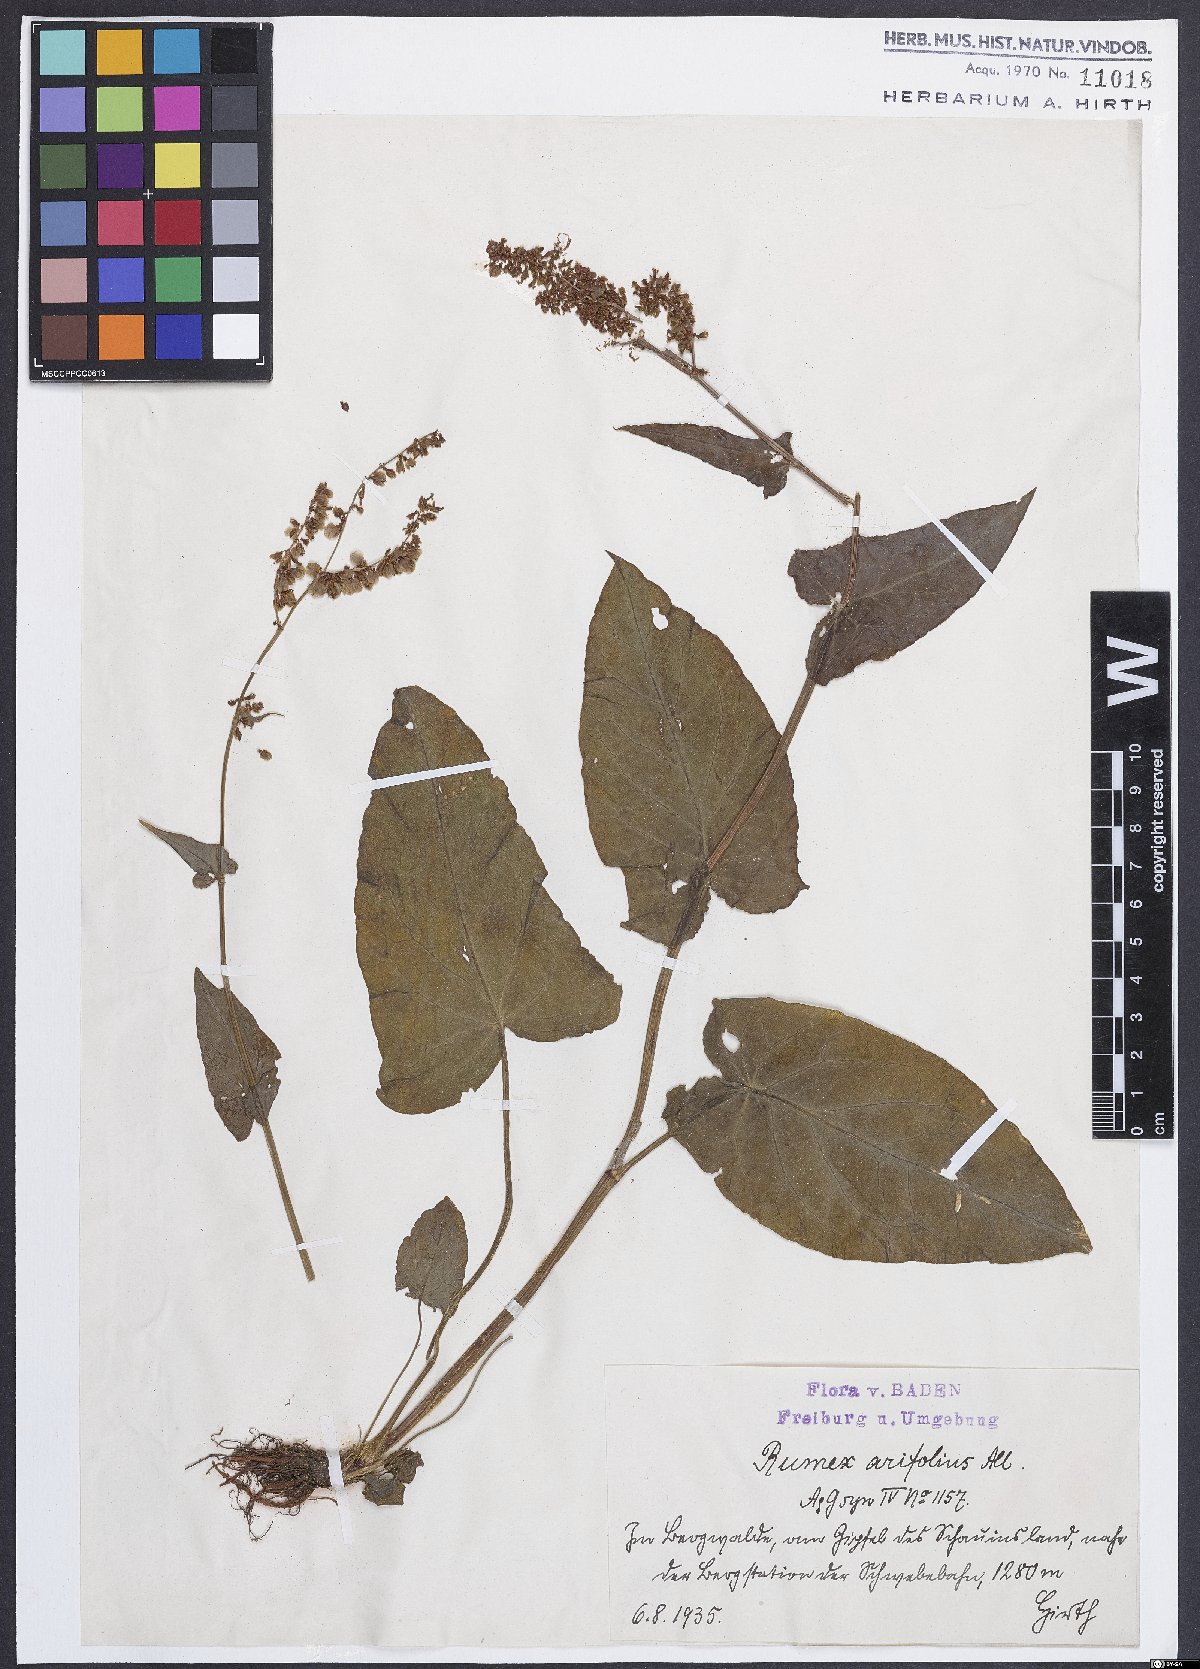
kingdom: Plantae
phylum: Tracheophyta
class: Magnoliopsida
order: Caryophyllales
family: Polygonaceae
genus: Rumex
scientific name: Rumex arifolius
